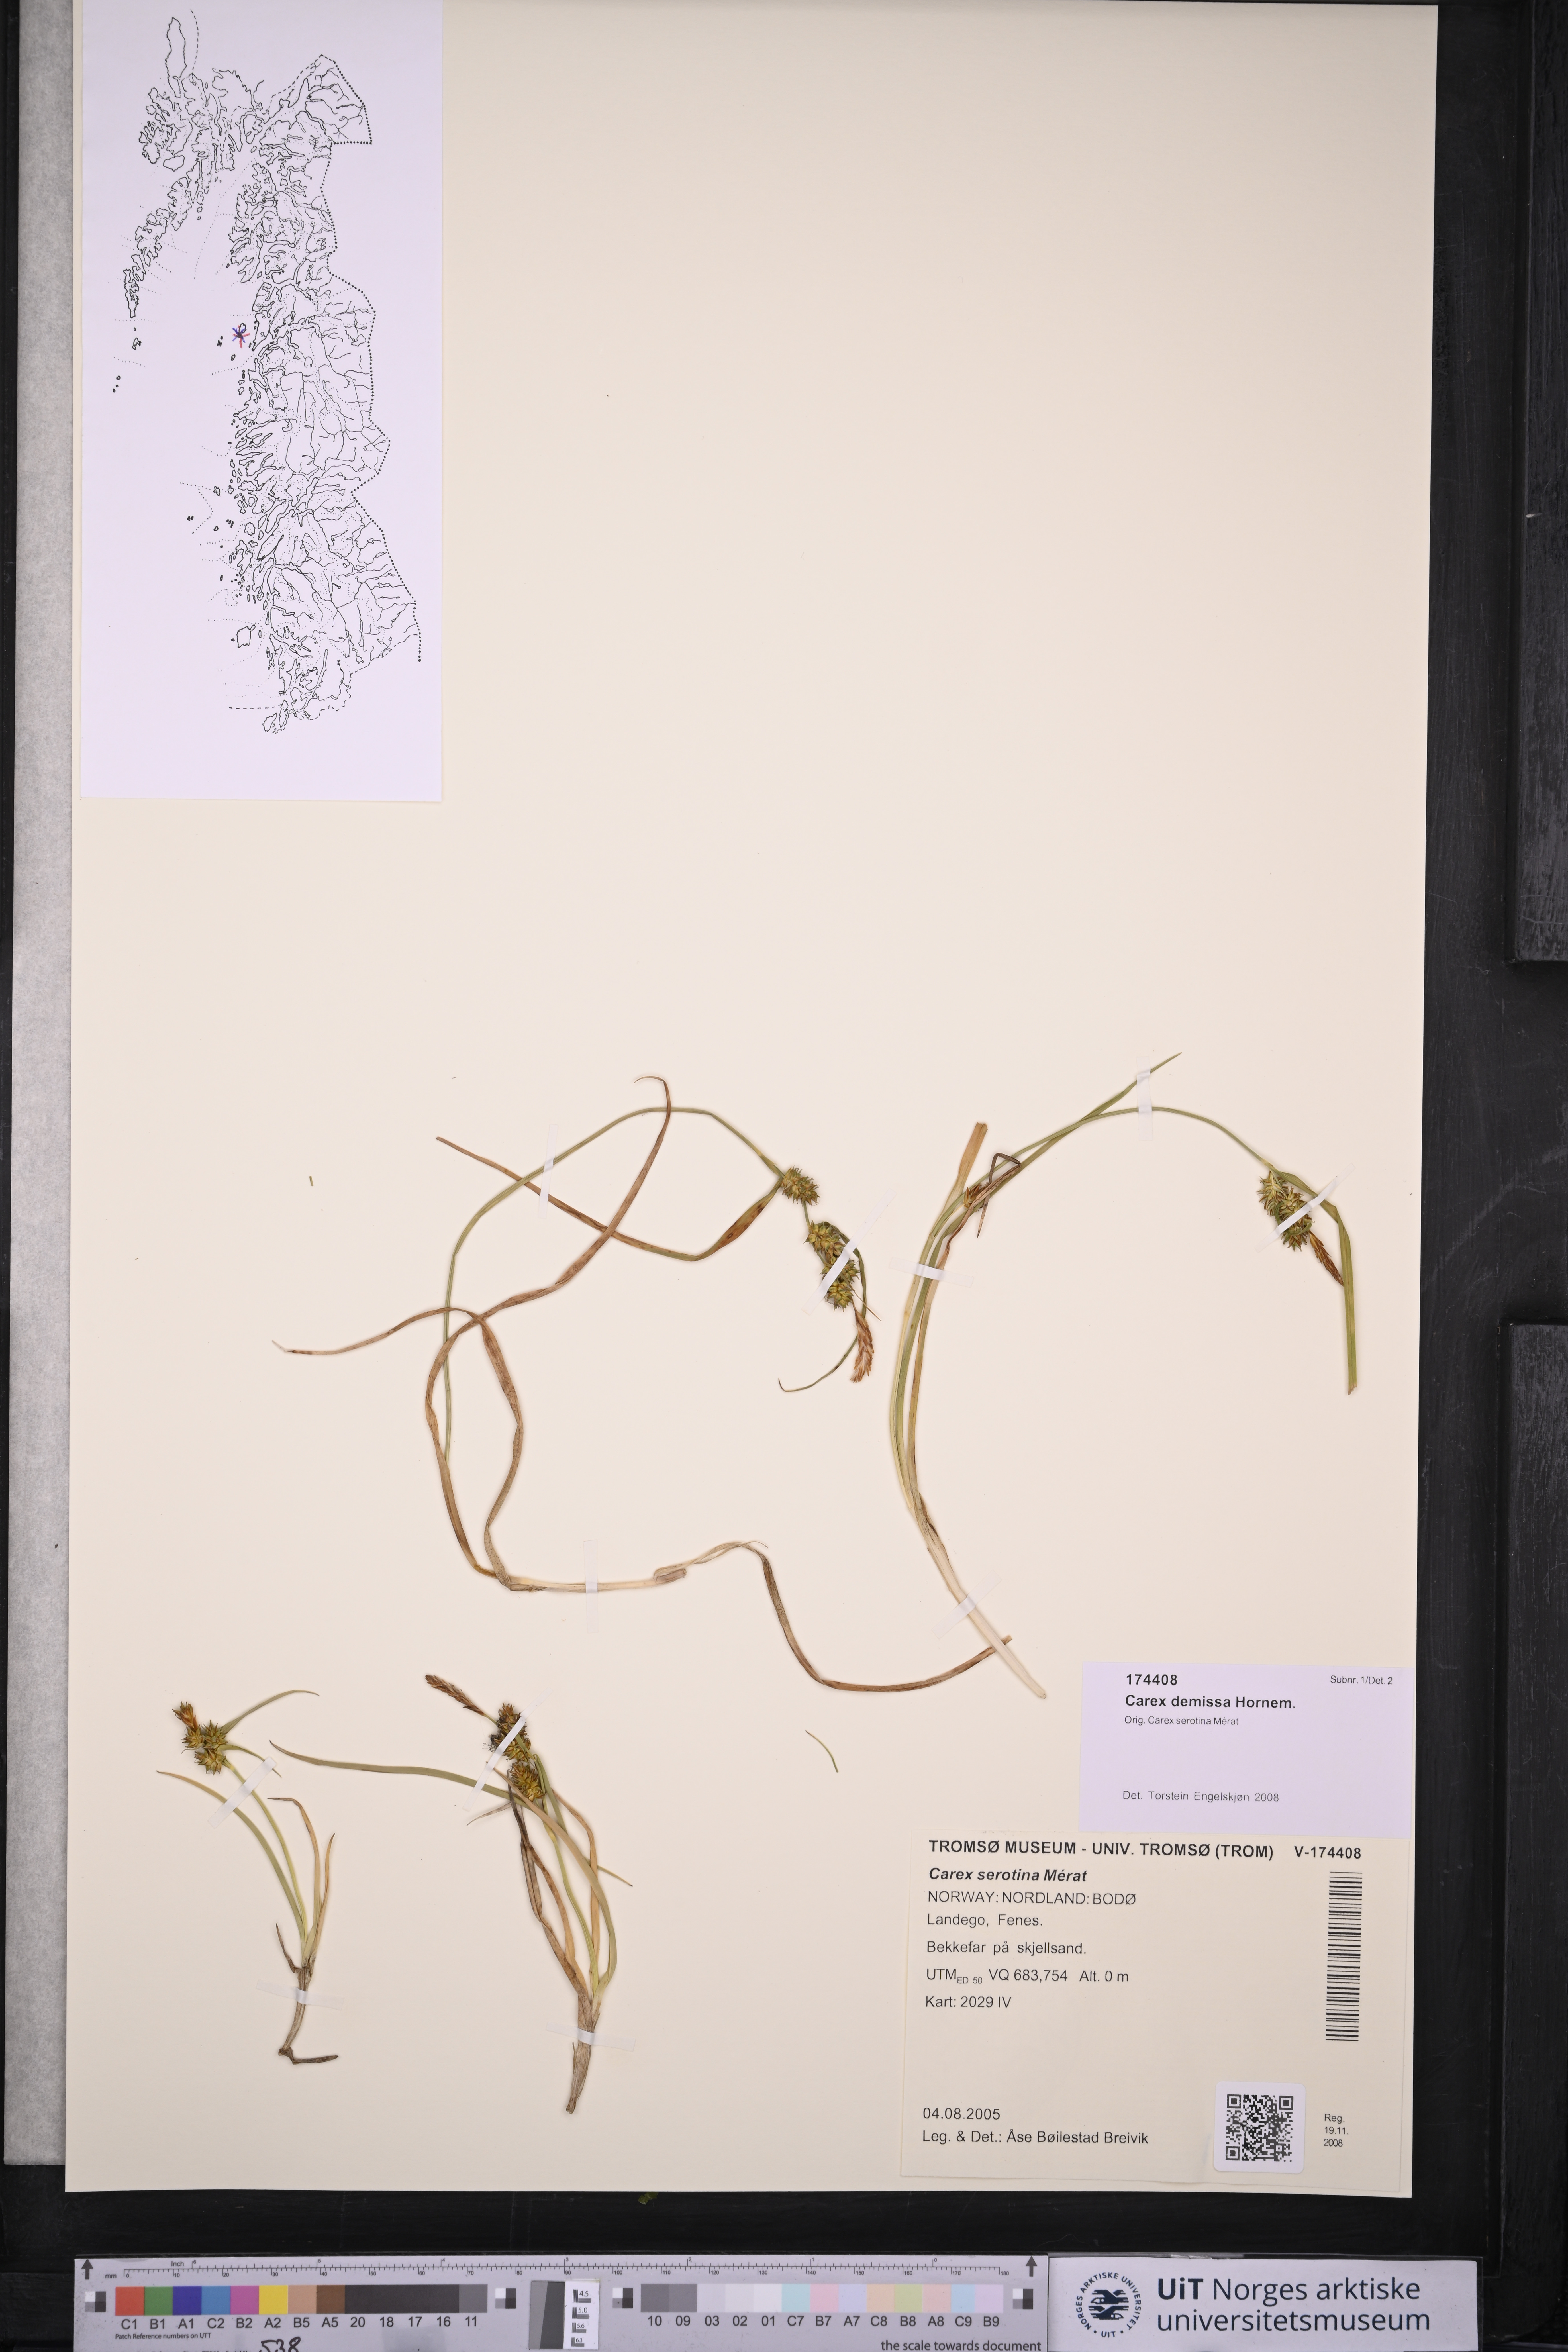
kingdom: Plantae
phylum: Tracheophyta
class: Liliopsida
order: Poales
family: Cyperaceae
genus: Carex
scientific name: Carex demissa
